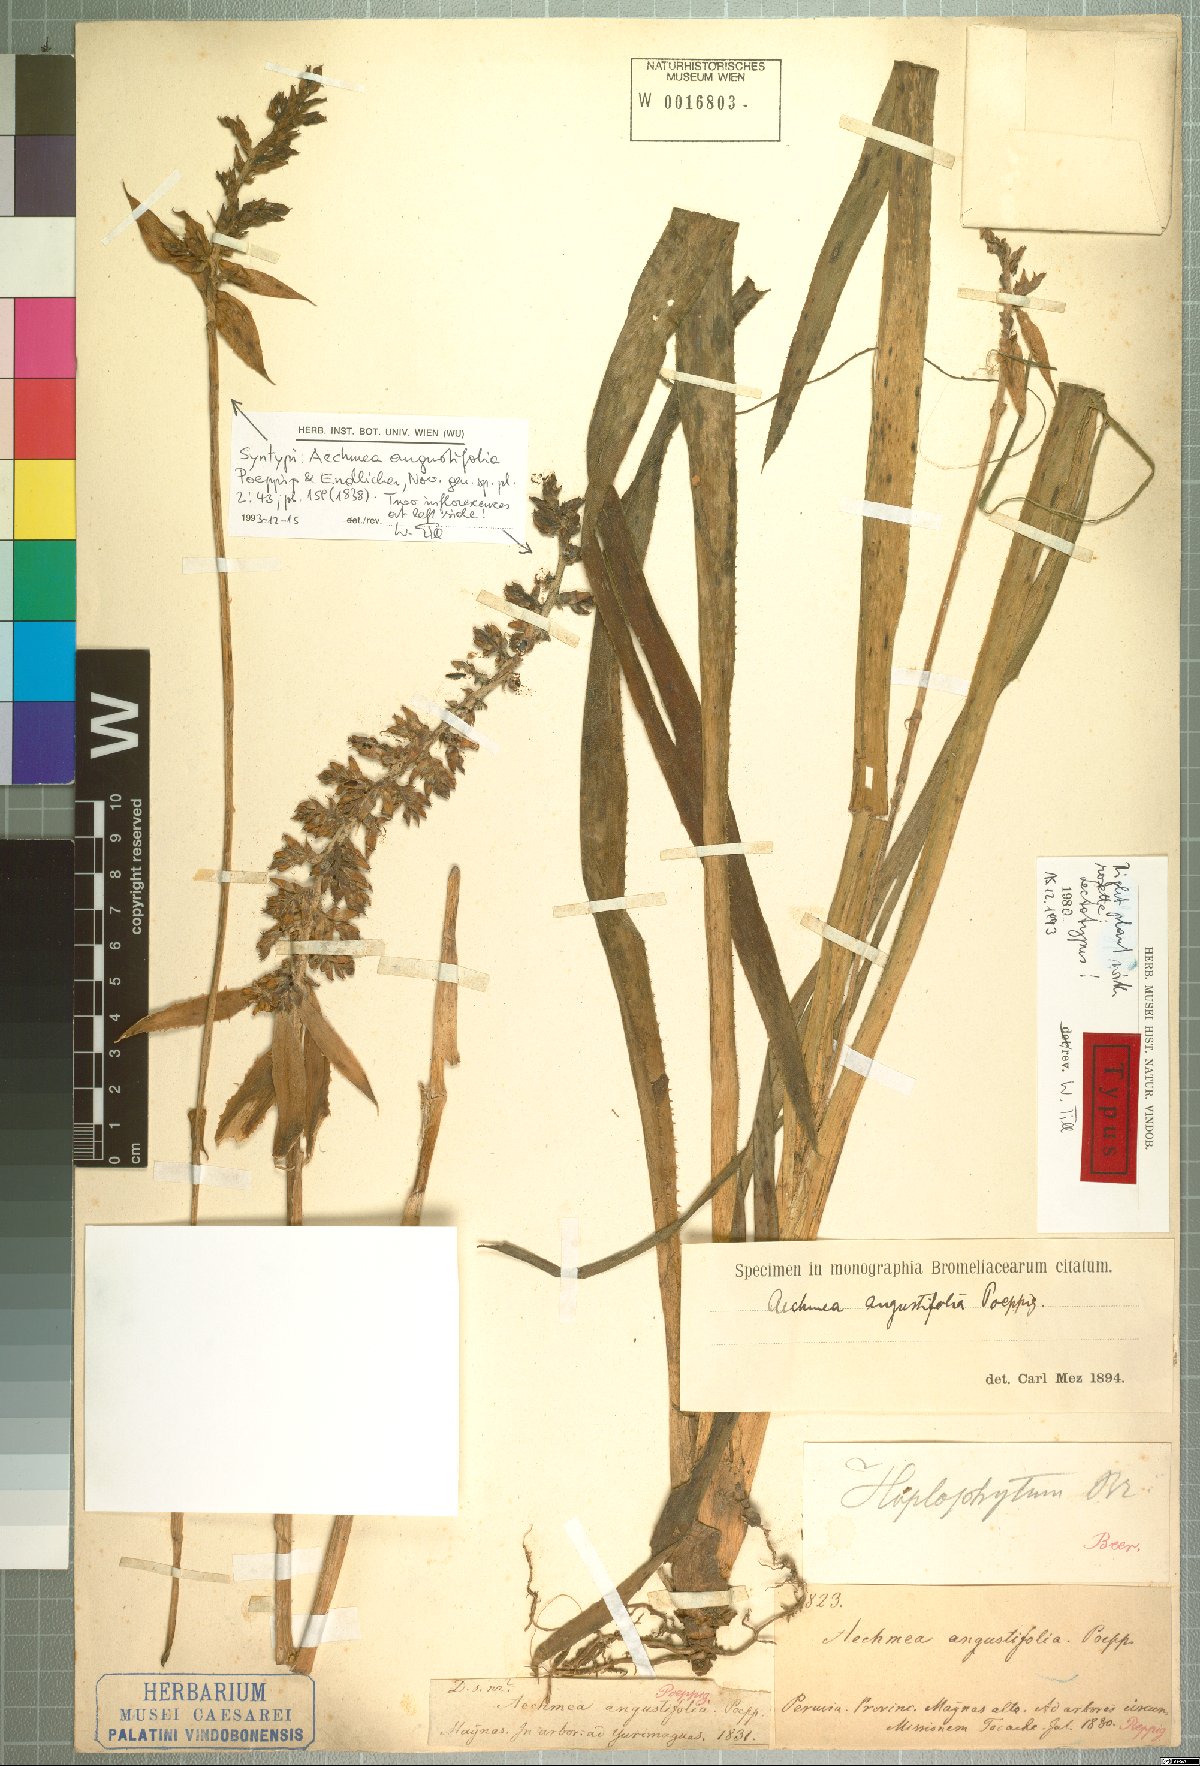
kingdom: Plantae
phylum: Tracheophyta
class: Liliopsida
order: Poales
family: Bromeliaceae
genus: Aechmea
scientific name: Aechmea angustifolia
